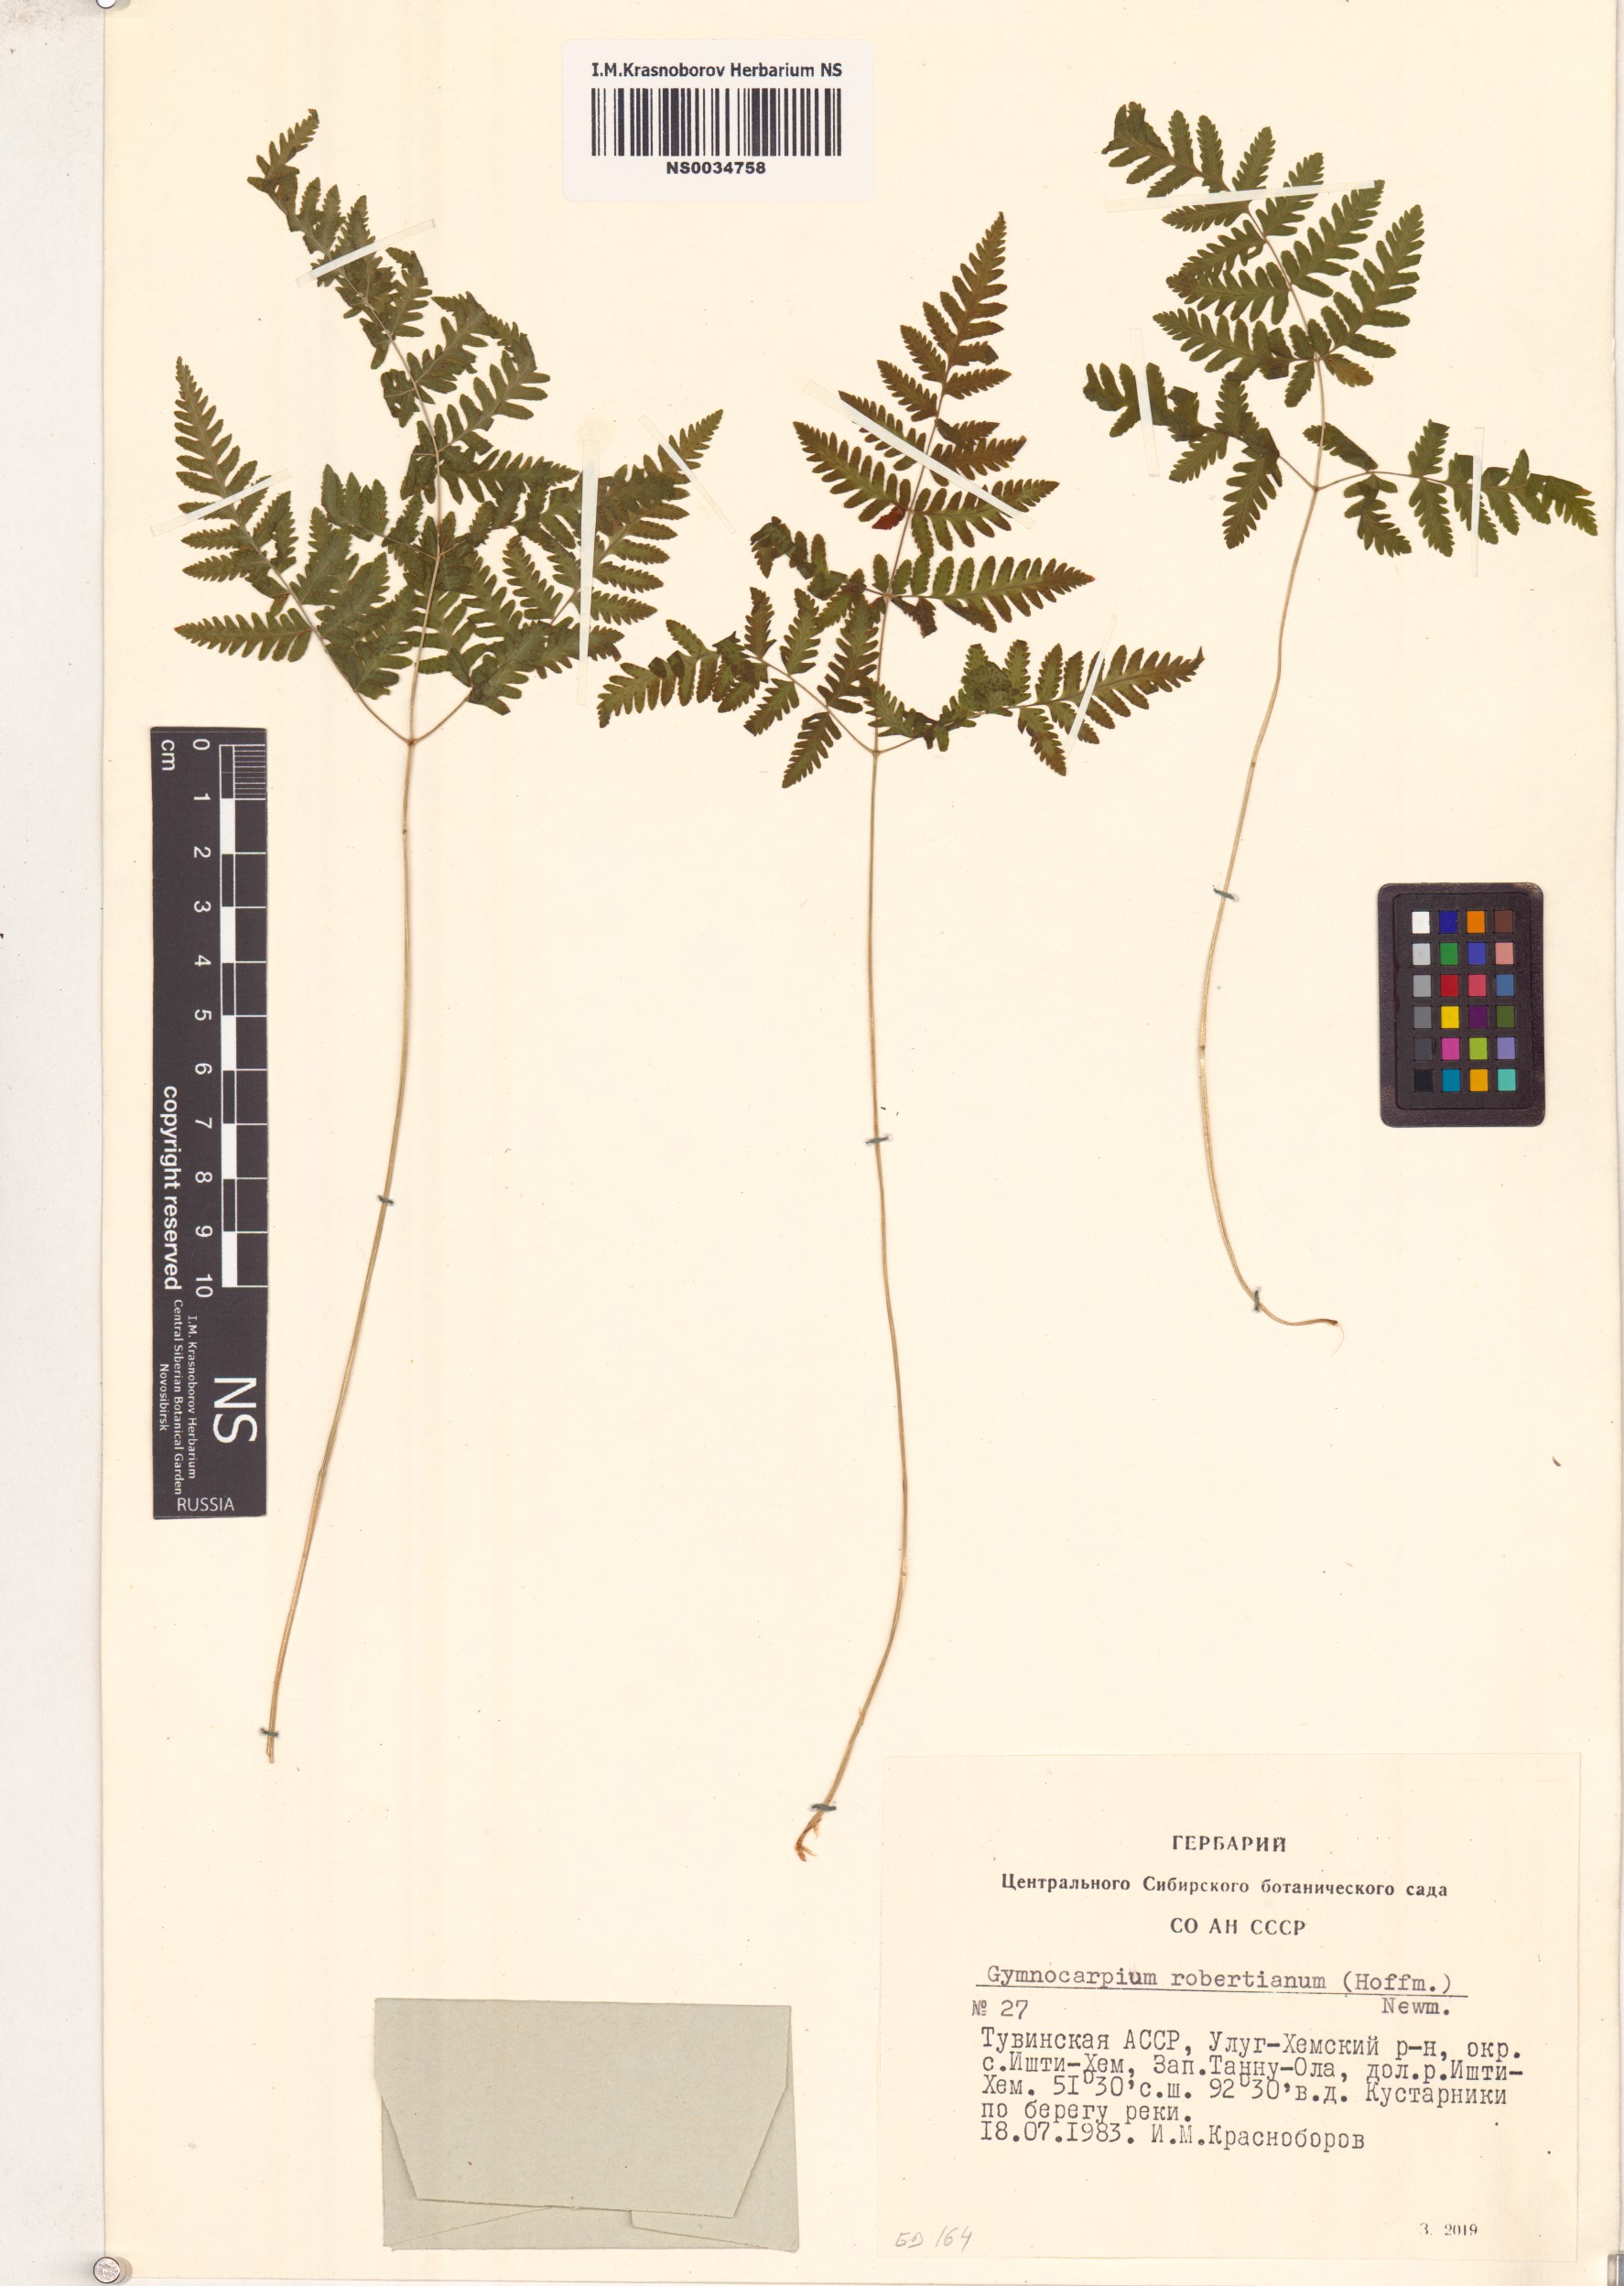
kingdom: Plantae
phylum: Tracheophyta
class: Polypodiopsida
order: Polypodiales
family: Cystopteridaceae
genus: Gymnocarpium
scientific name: Gymnocarpium robertianum
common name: Limestone fern
